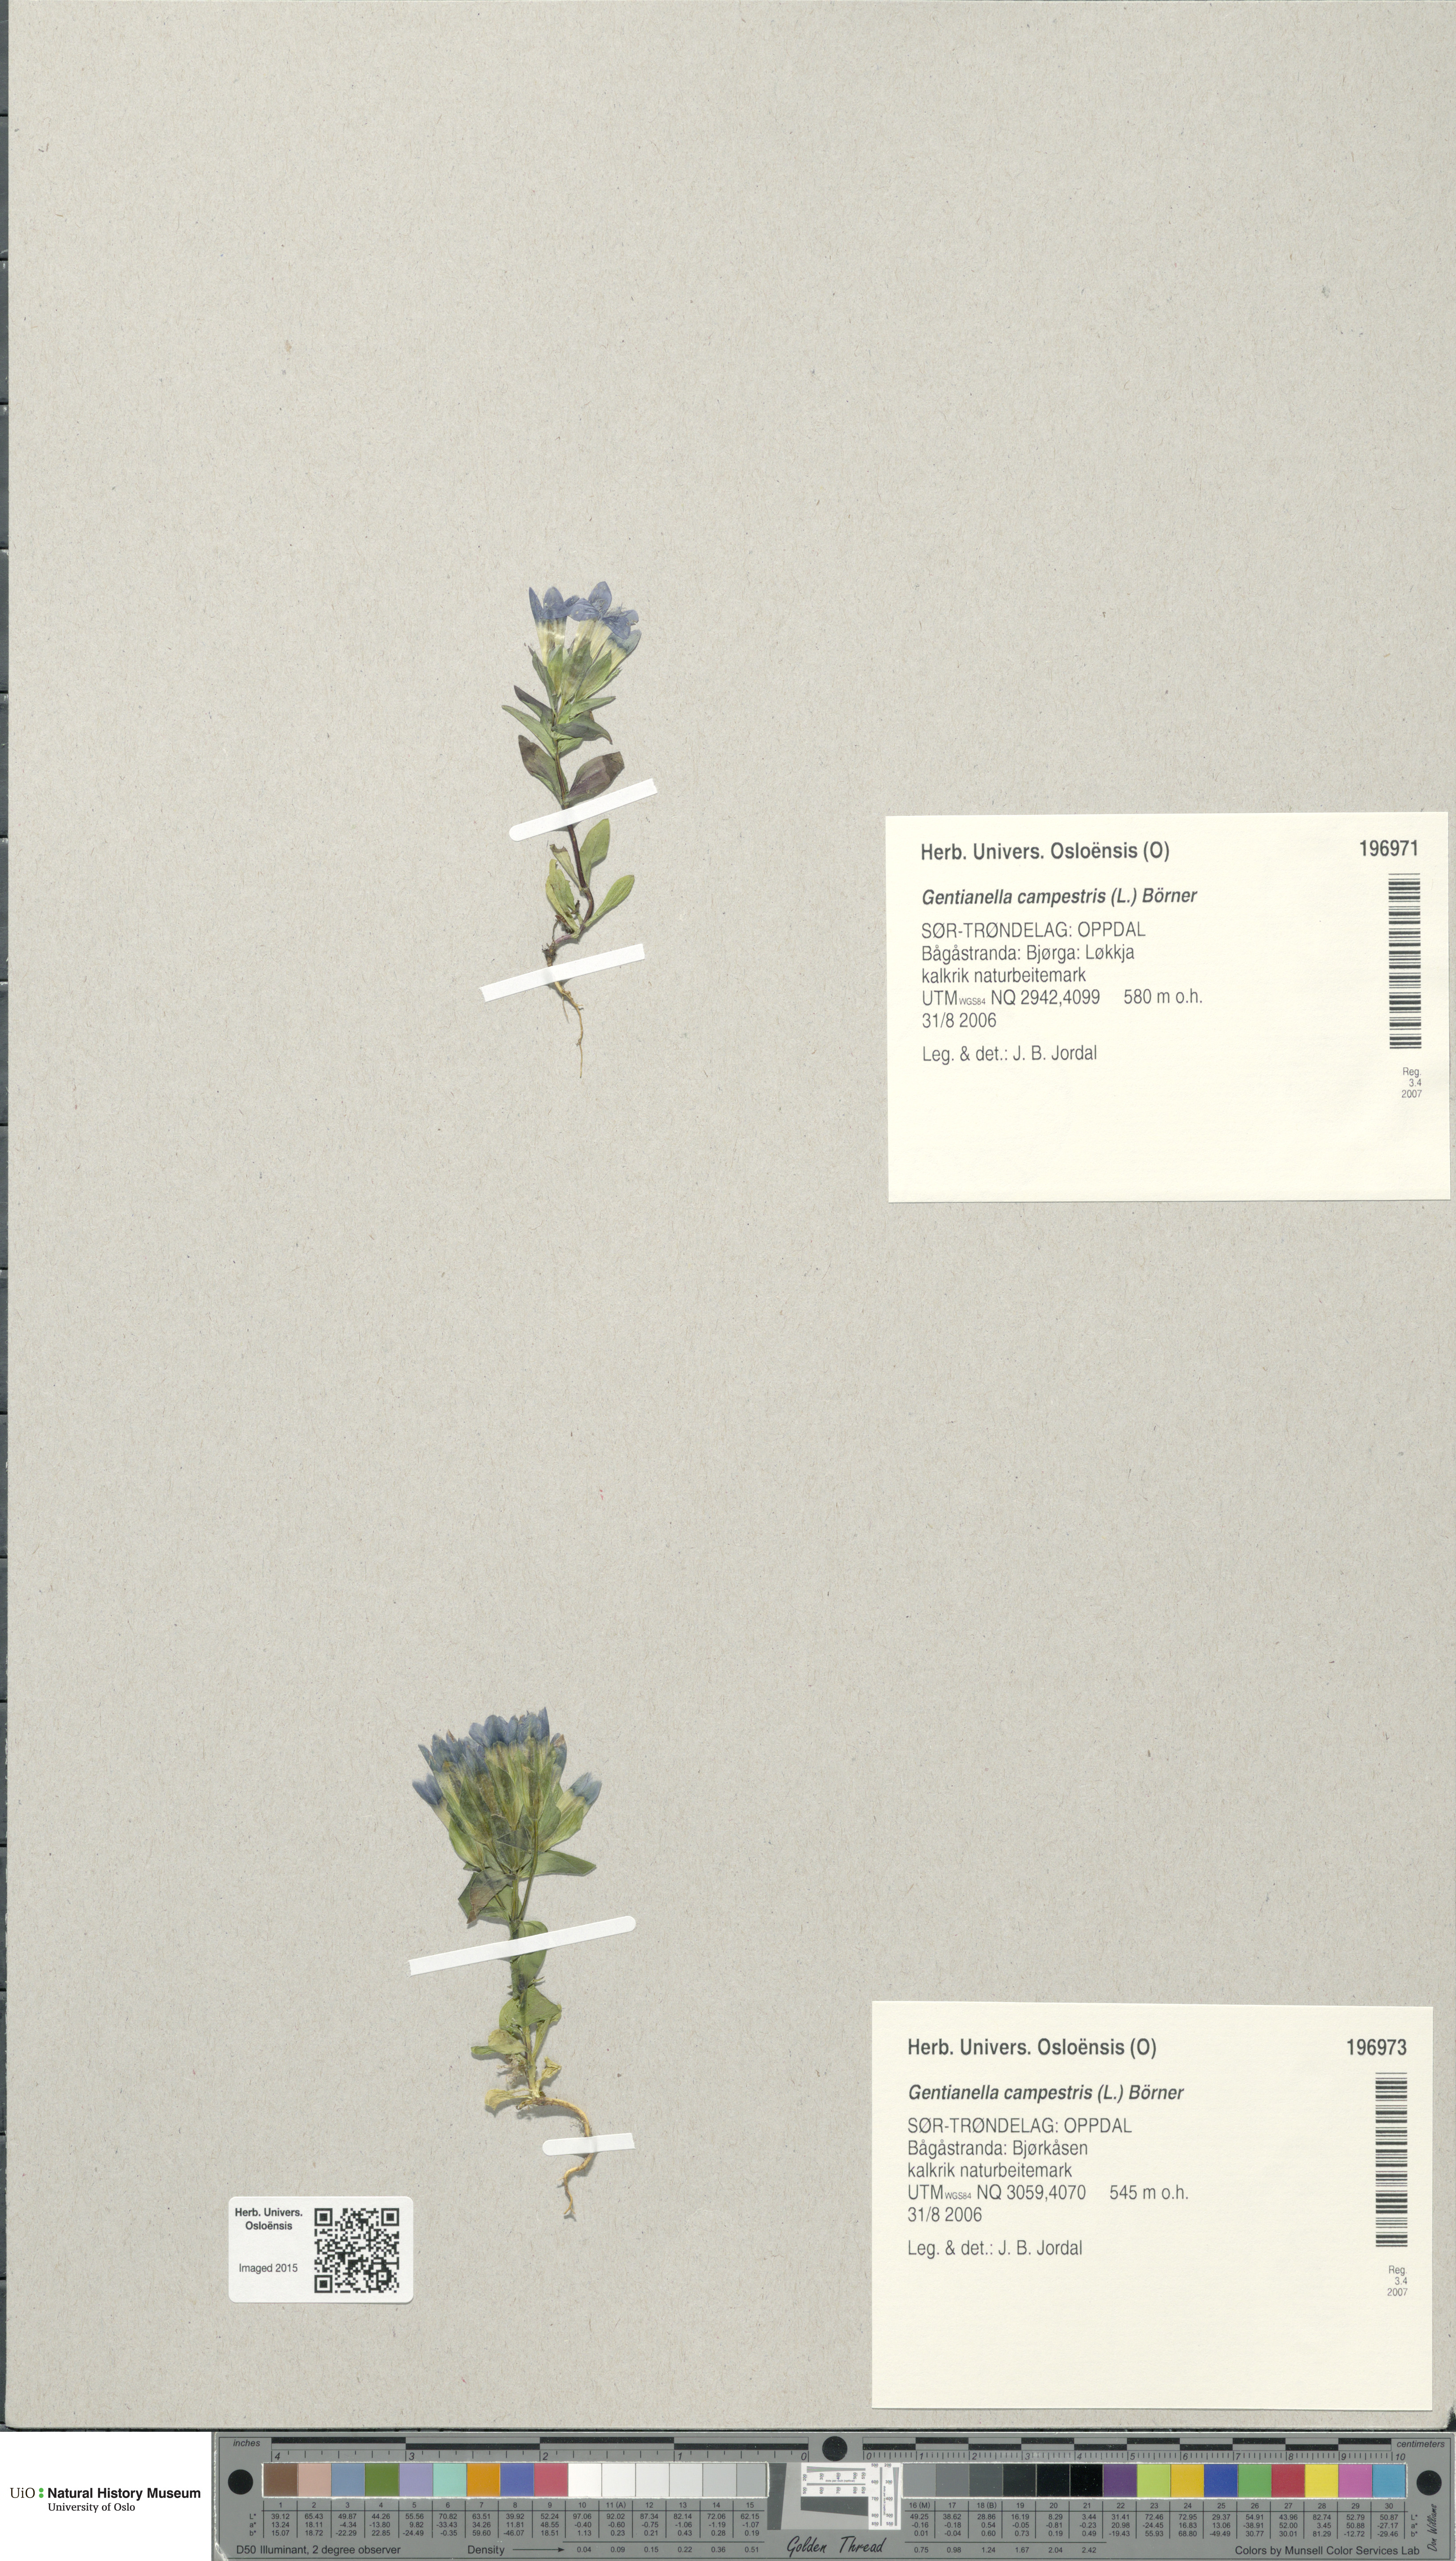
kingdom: Plantae
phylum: Tracheophyta
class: Magnoliopsida
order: Gentianales
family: Gentianaceae
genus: Gentianella
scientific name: Gentianella campestris
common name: Field gentian
